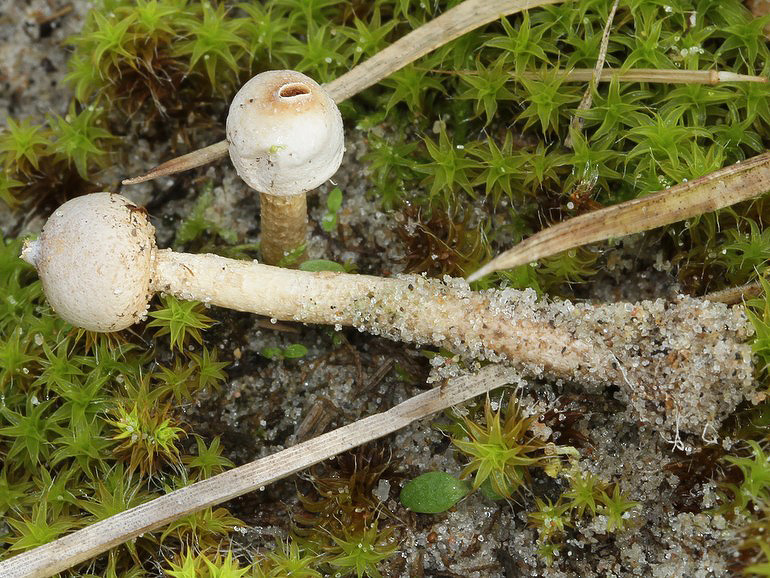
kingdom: Fungi
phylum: Basidiomycota
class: Agaricomycetes
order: Agaricales
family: Agaricaceae
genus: Tulostoma
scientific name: Tulostoma brumale
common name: vinter-stilkbovist
